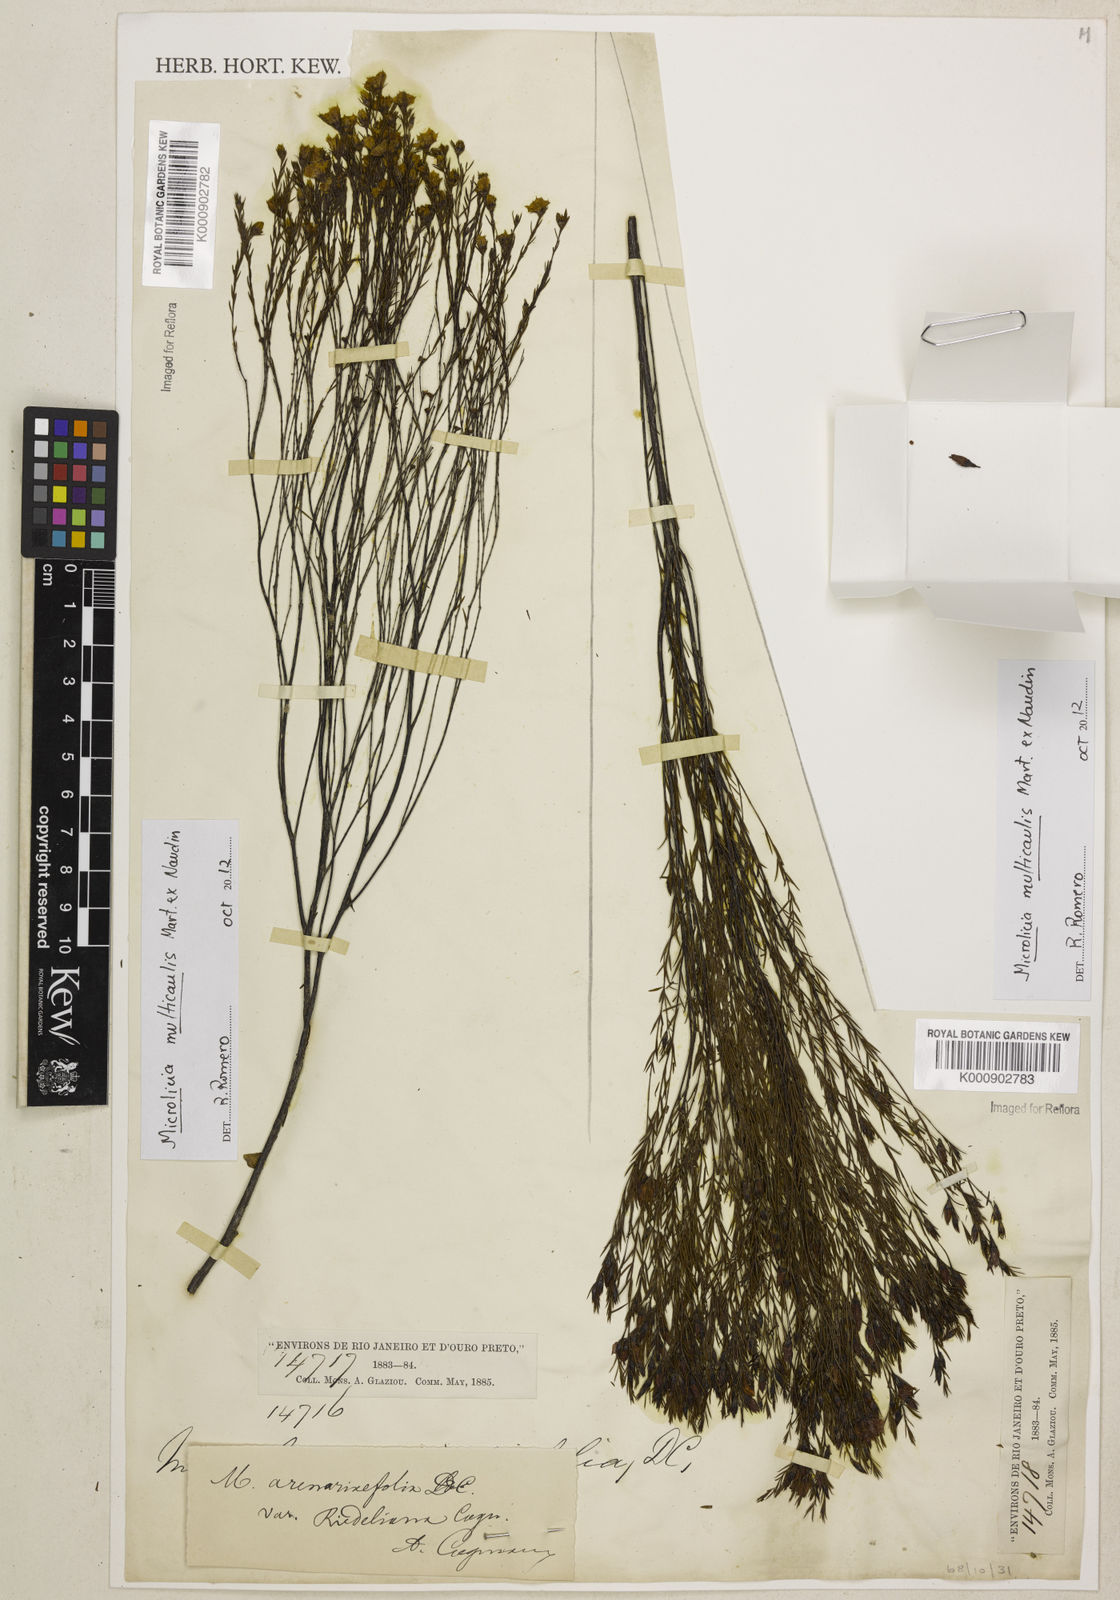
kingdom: Plantae
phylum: Tracheophyta
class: Magnoliopsida
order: Myrtales
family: Melastomataceae
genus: Microlicia
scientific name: Microlicia multicaulis
